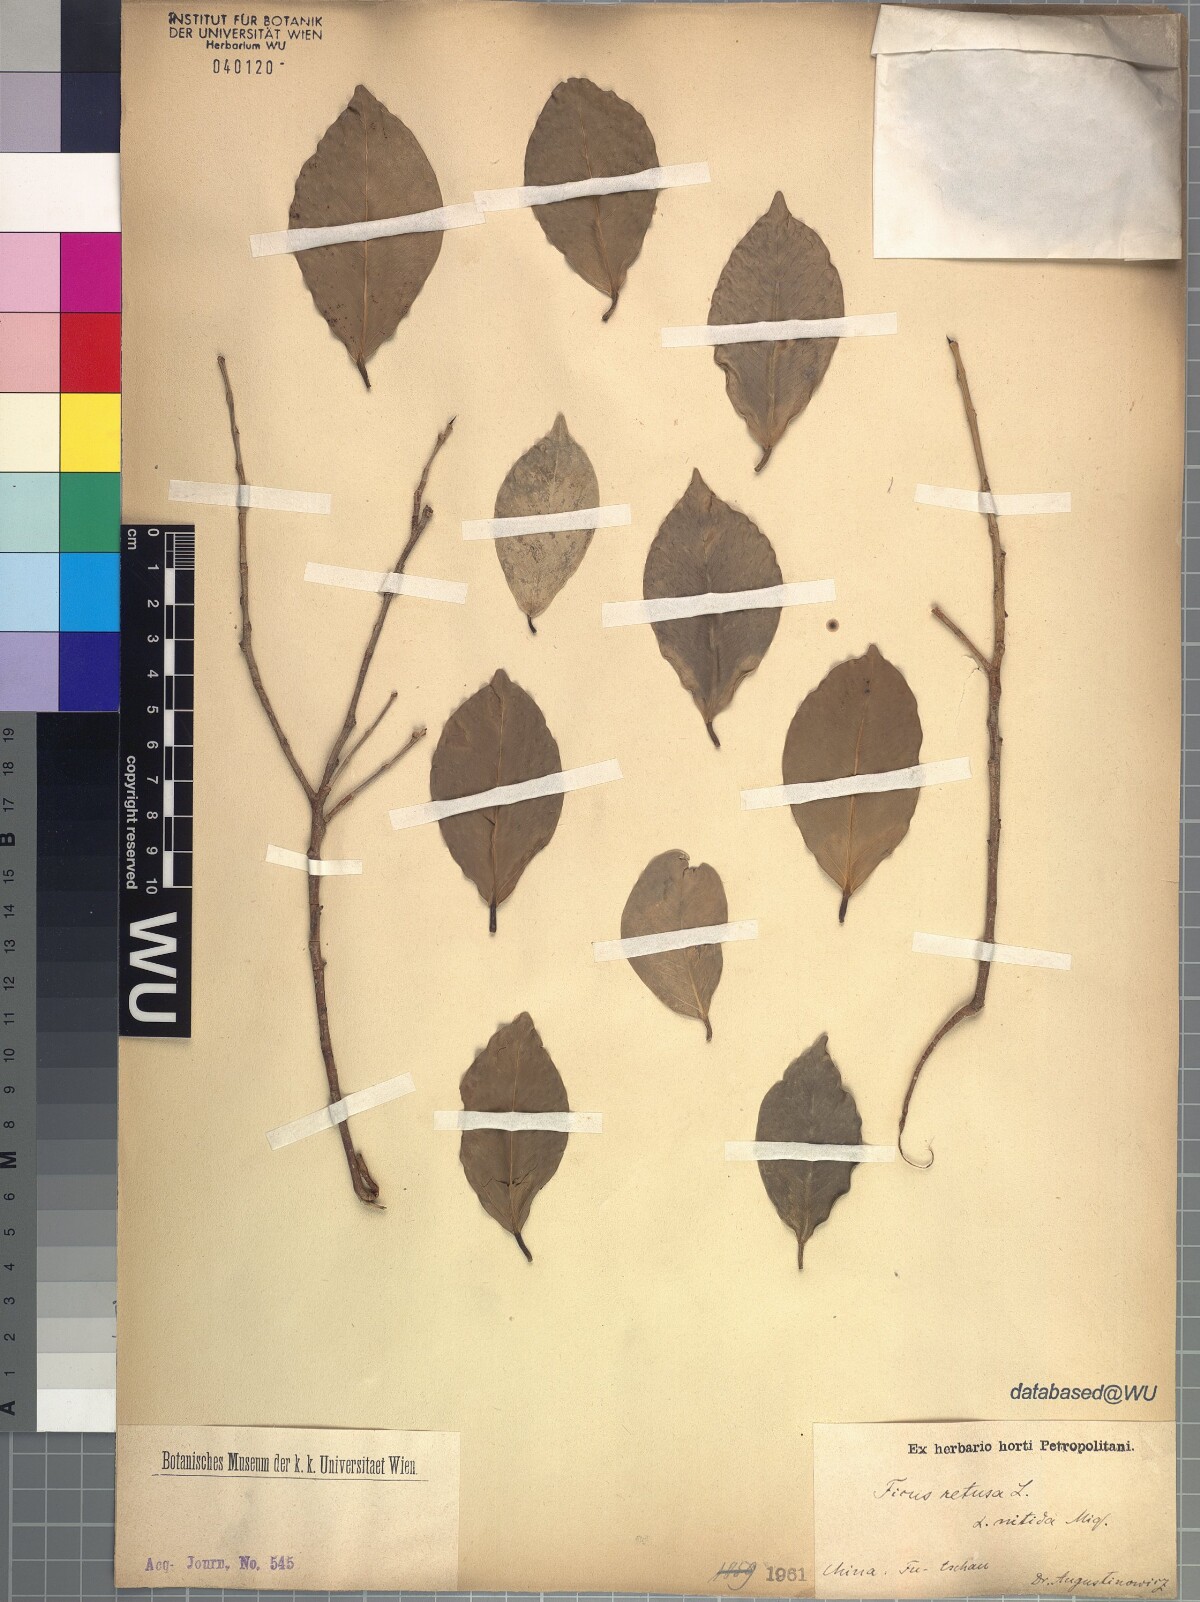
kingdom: Plantae
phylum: Tracheophyta
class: Magnoliopsida
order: Rosales
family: Moraceae
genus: Ficus
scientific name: Ficus retusa
